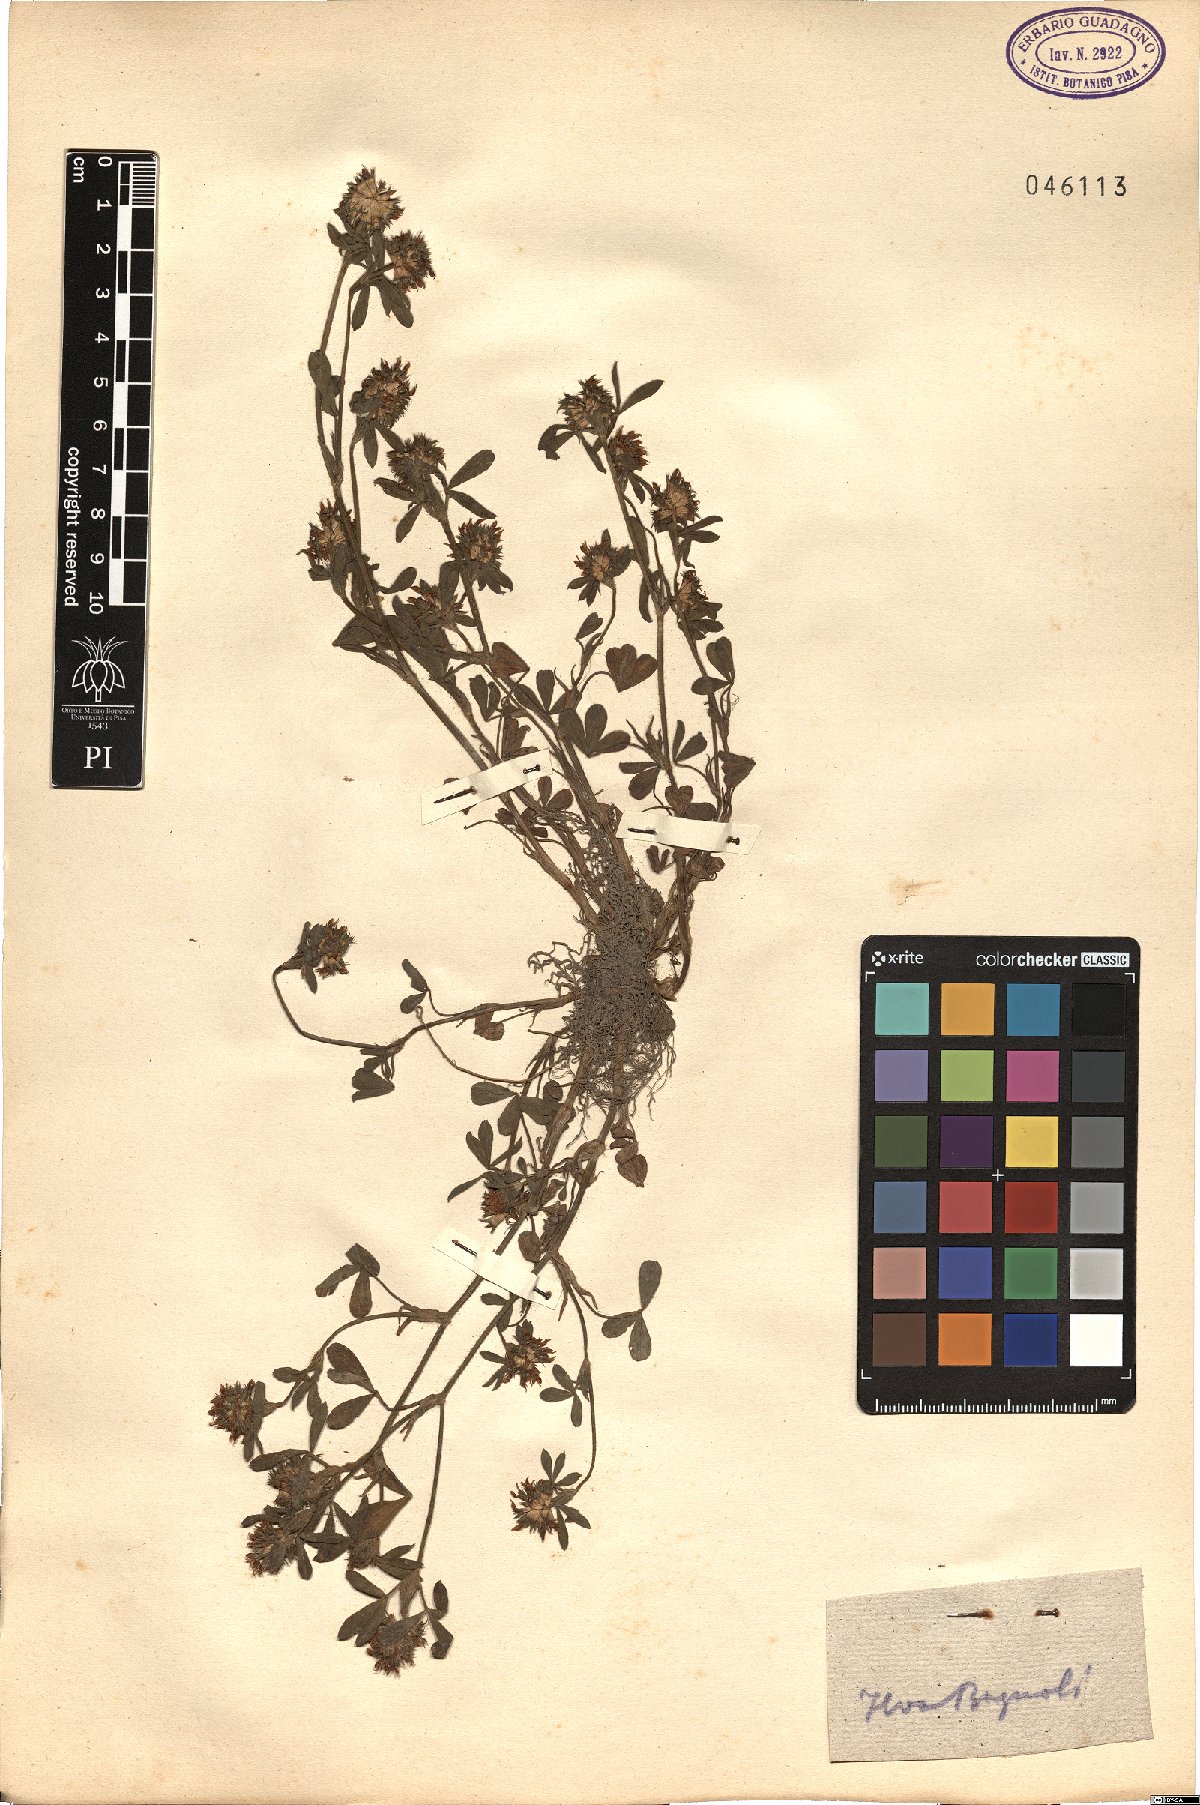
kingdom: Plantae
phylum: Tracheophyta
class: Magnoliopsida
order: Fabales
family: Fabaceae
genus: Trifolium
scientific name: Trifolium
